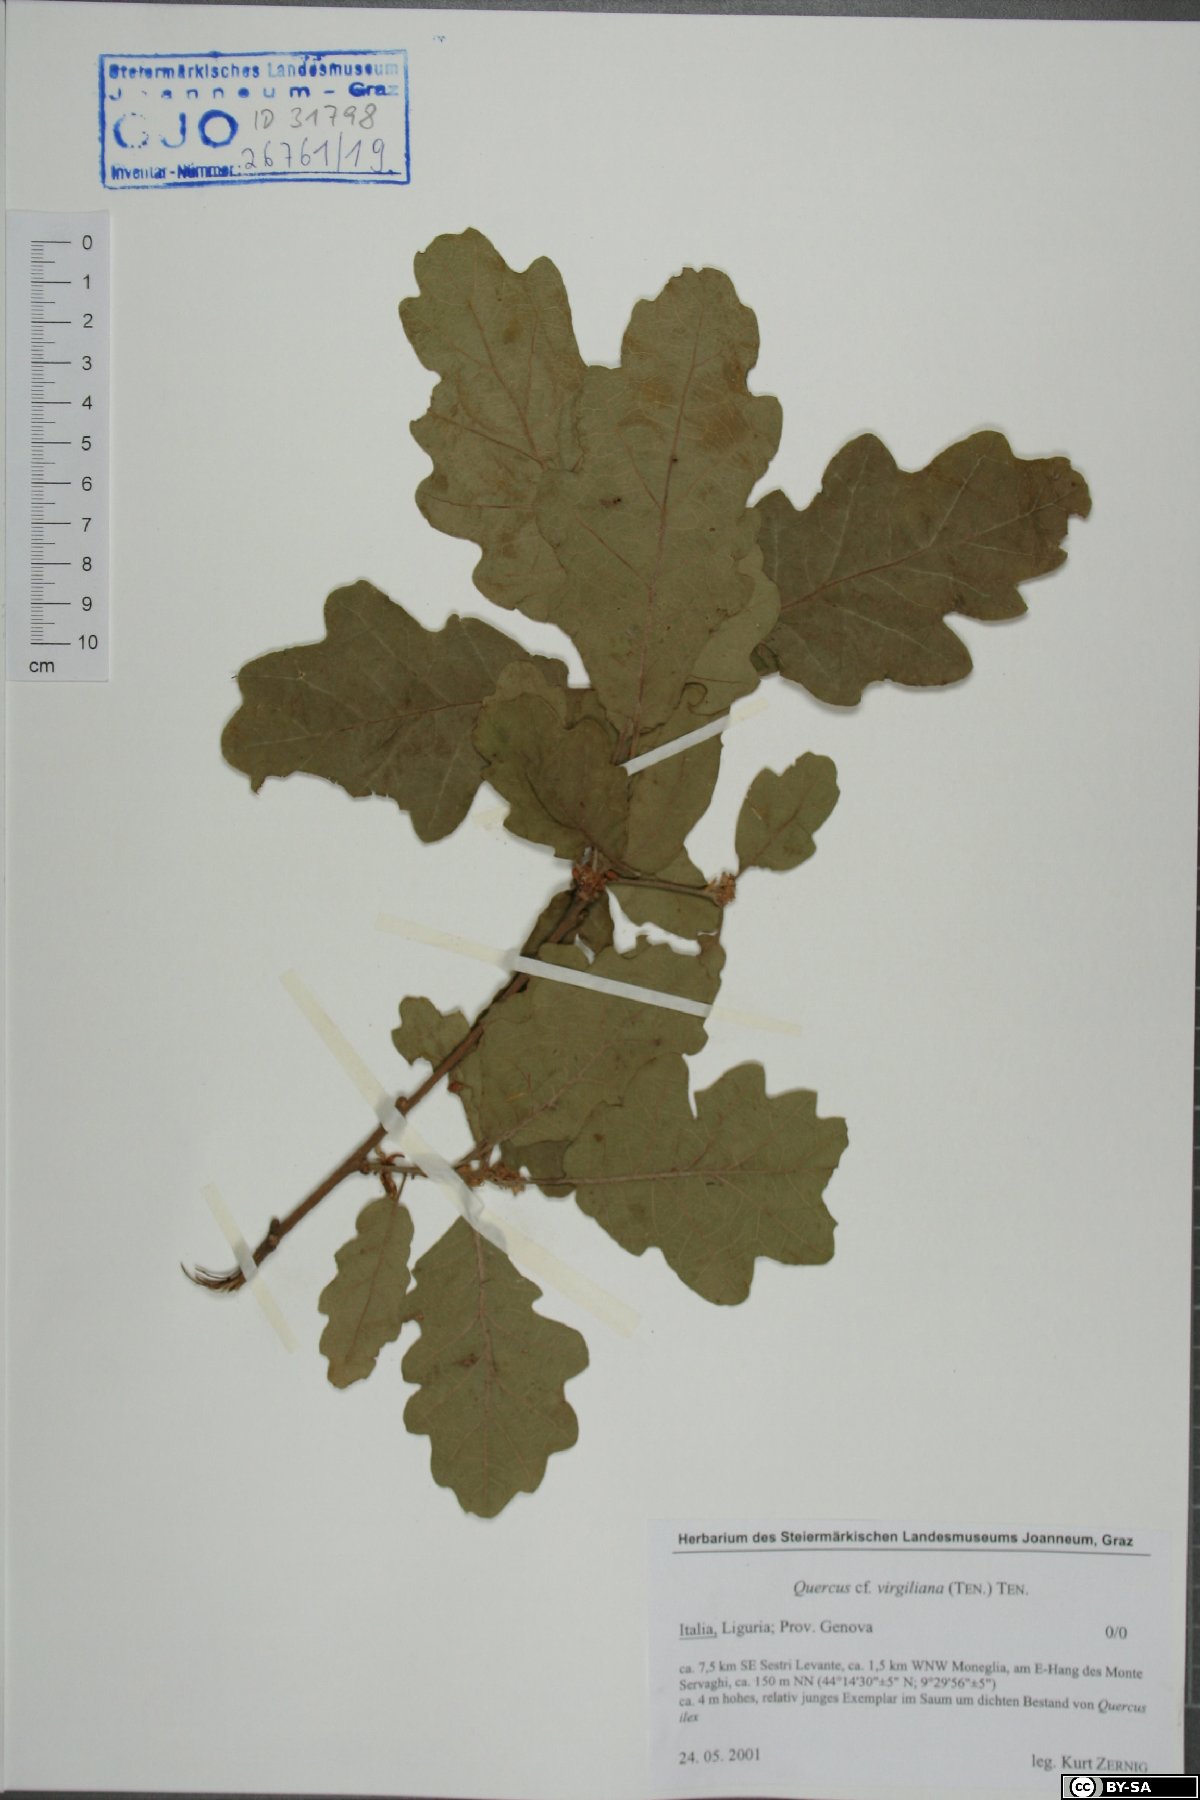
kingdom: Plantae
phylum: Tracheophyta
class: Magnoliopsida
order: Fagales
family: Fagaceae
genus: Quercus
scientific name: Quercus pubescens
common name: Downy oak
